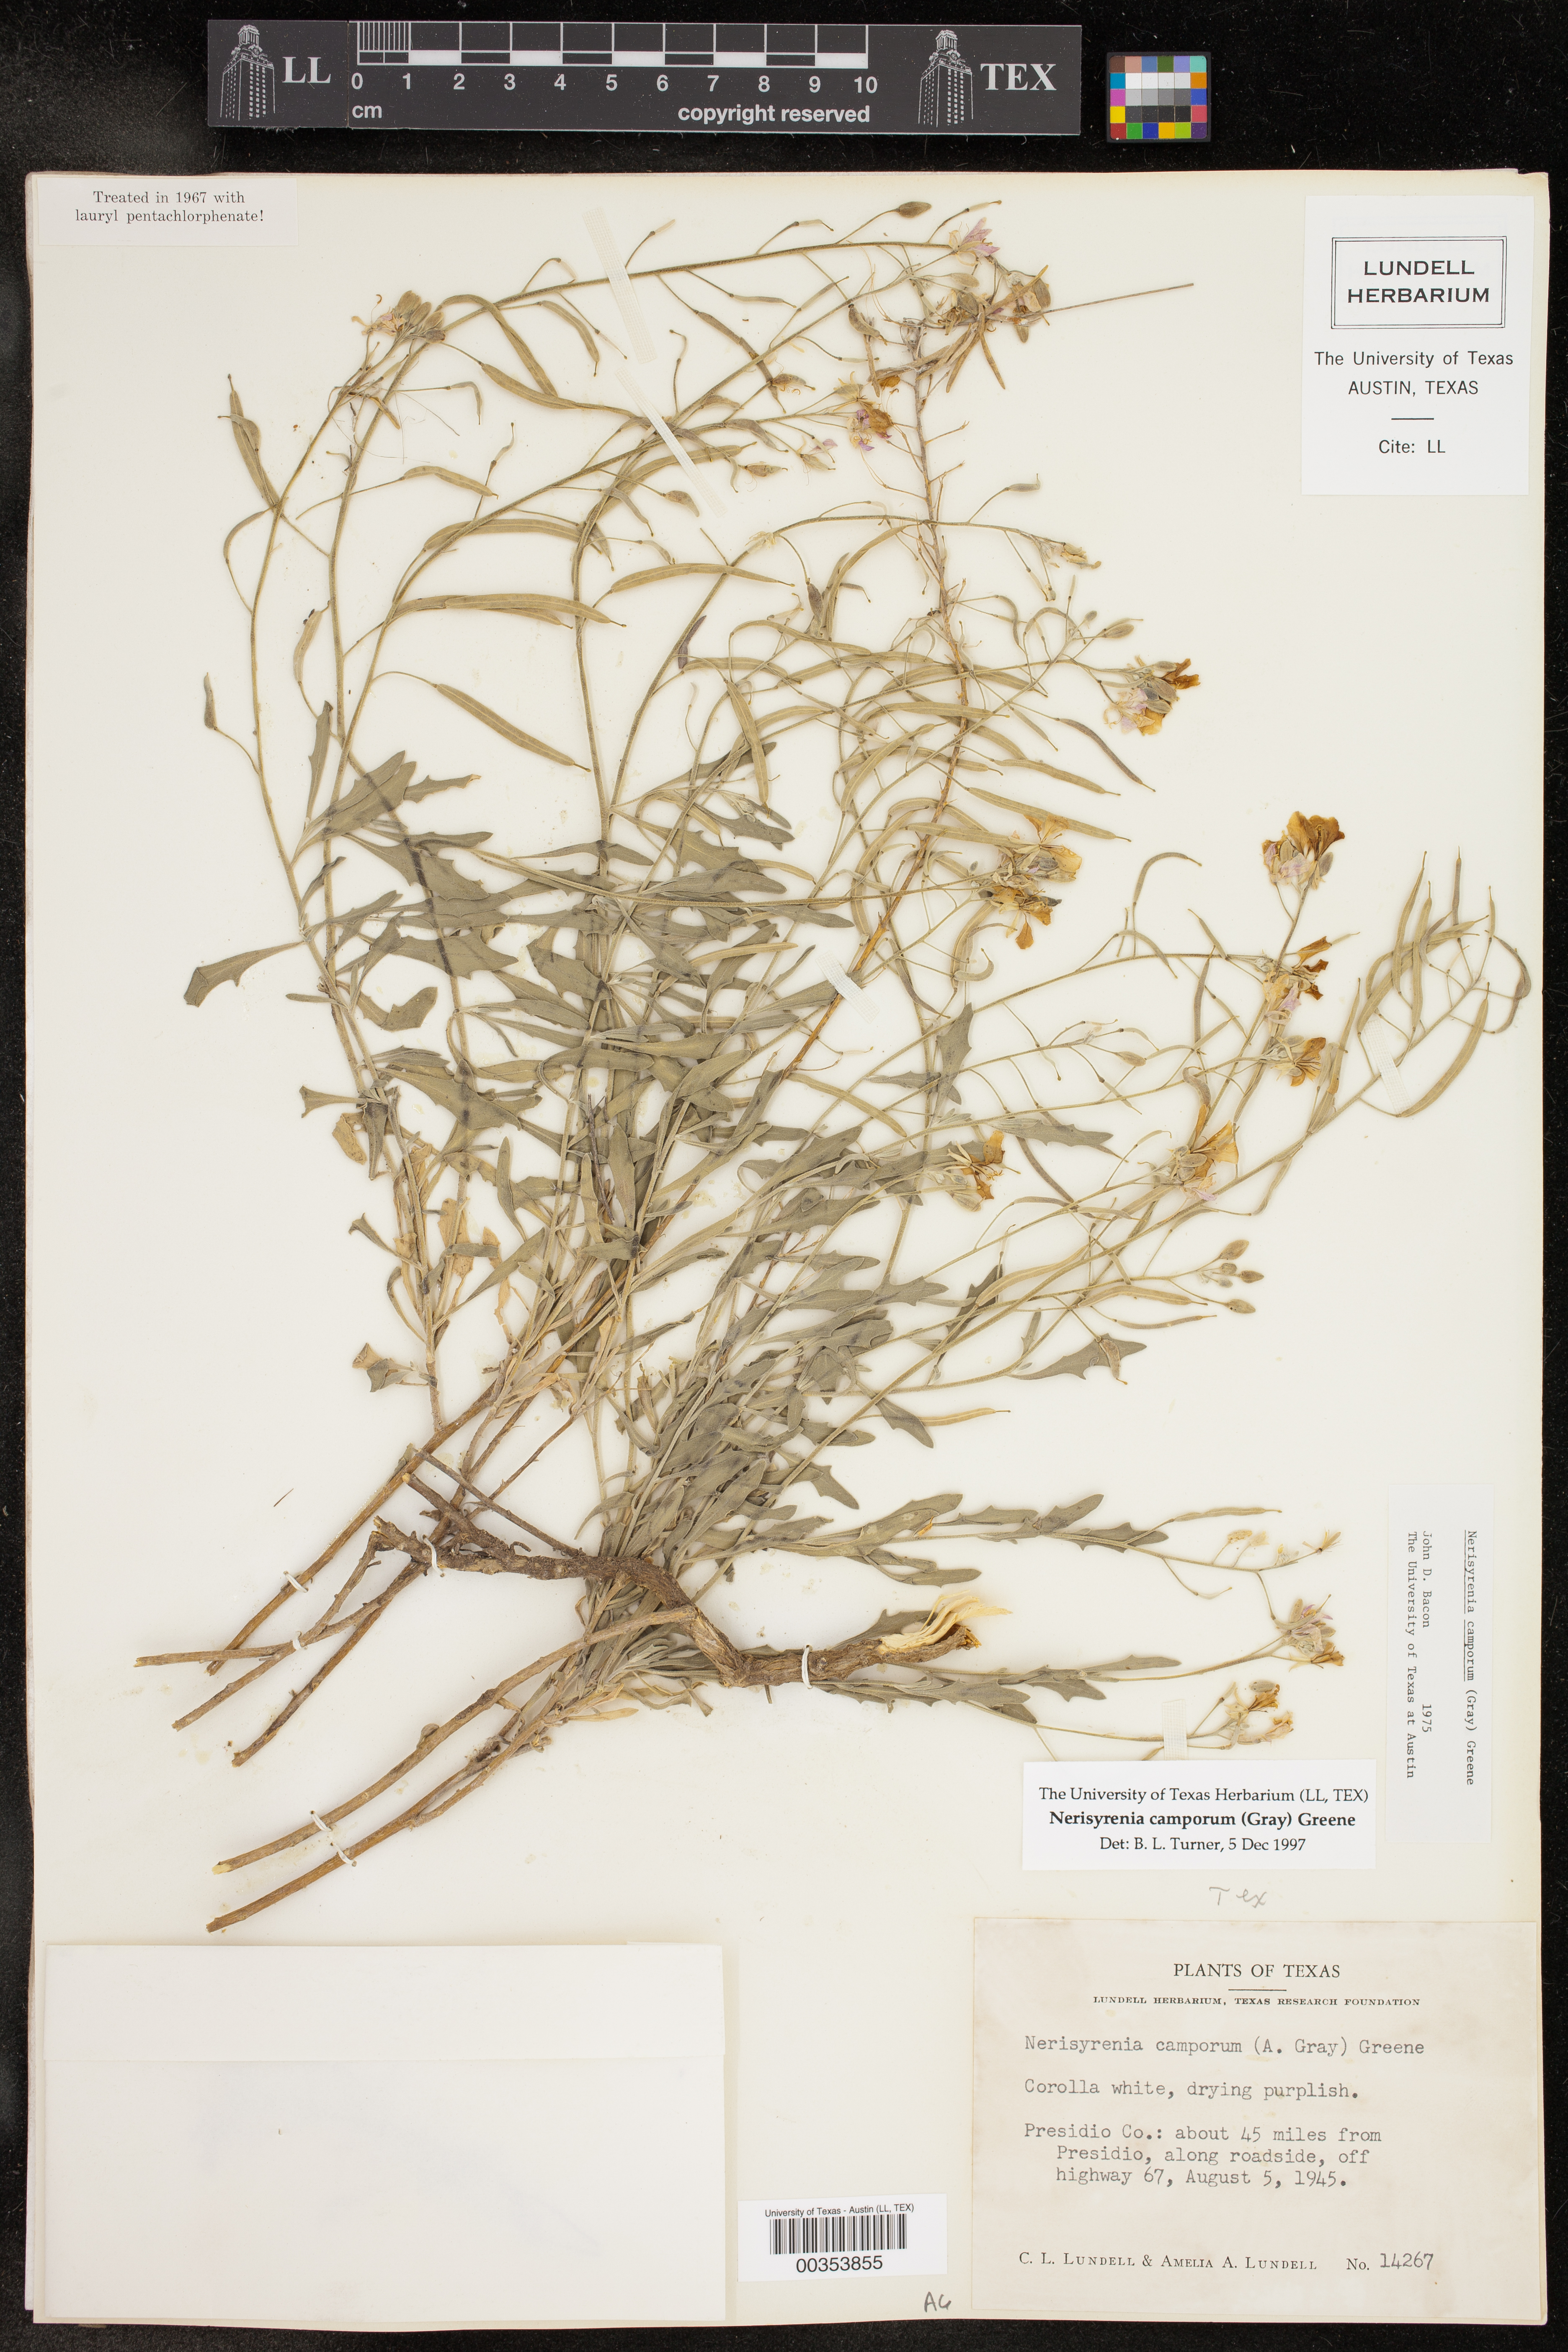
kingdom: Plantae
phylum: Tracheophyta
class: Magnoliopsida
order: Brassicales
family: Brassicaceae
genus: Nerisyrenia
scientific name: Nerisyrenia camporum
